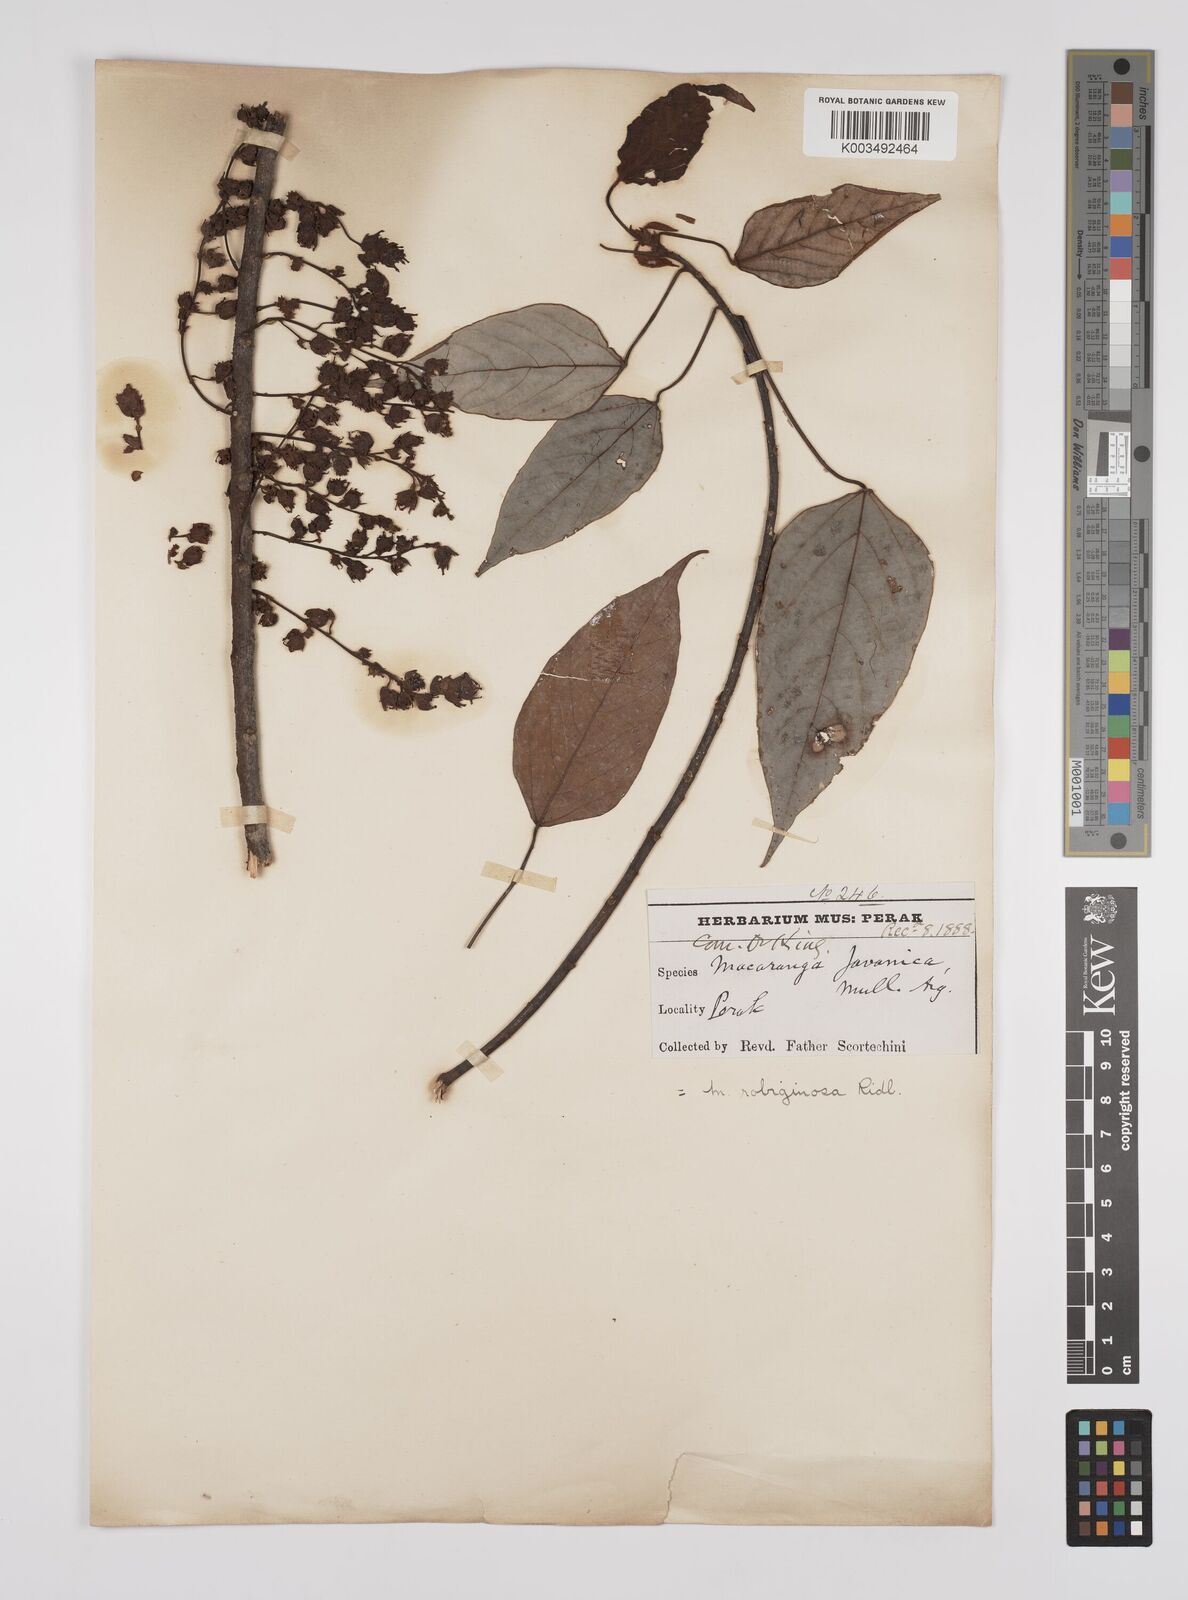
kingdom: Plantae
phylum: Tracheophyta
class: Magnoliopsida
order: Malpighiales
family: Euphorbiaceae
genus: Macaranga
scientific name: Macaranga heynei
